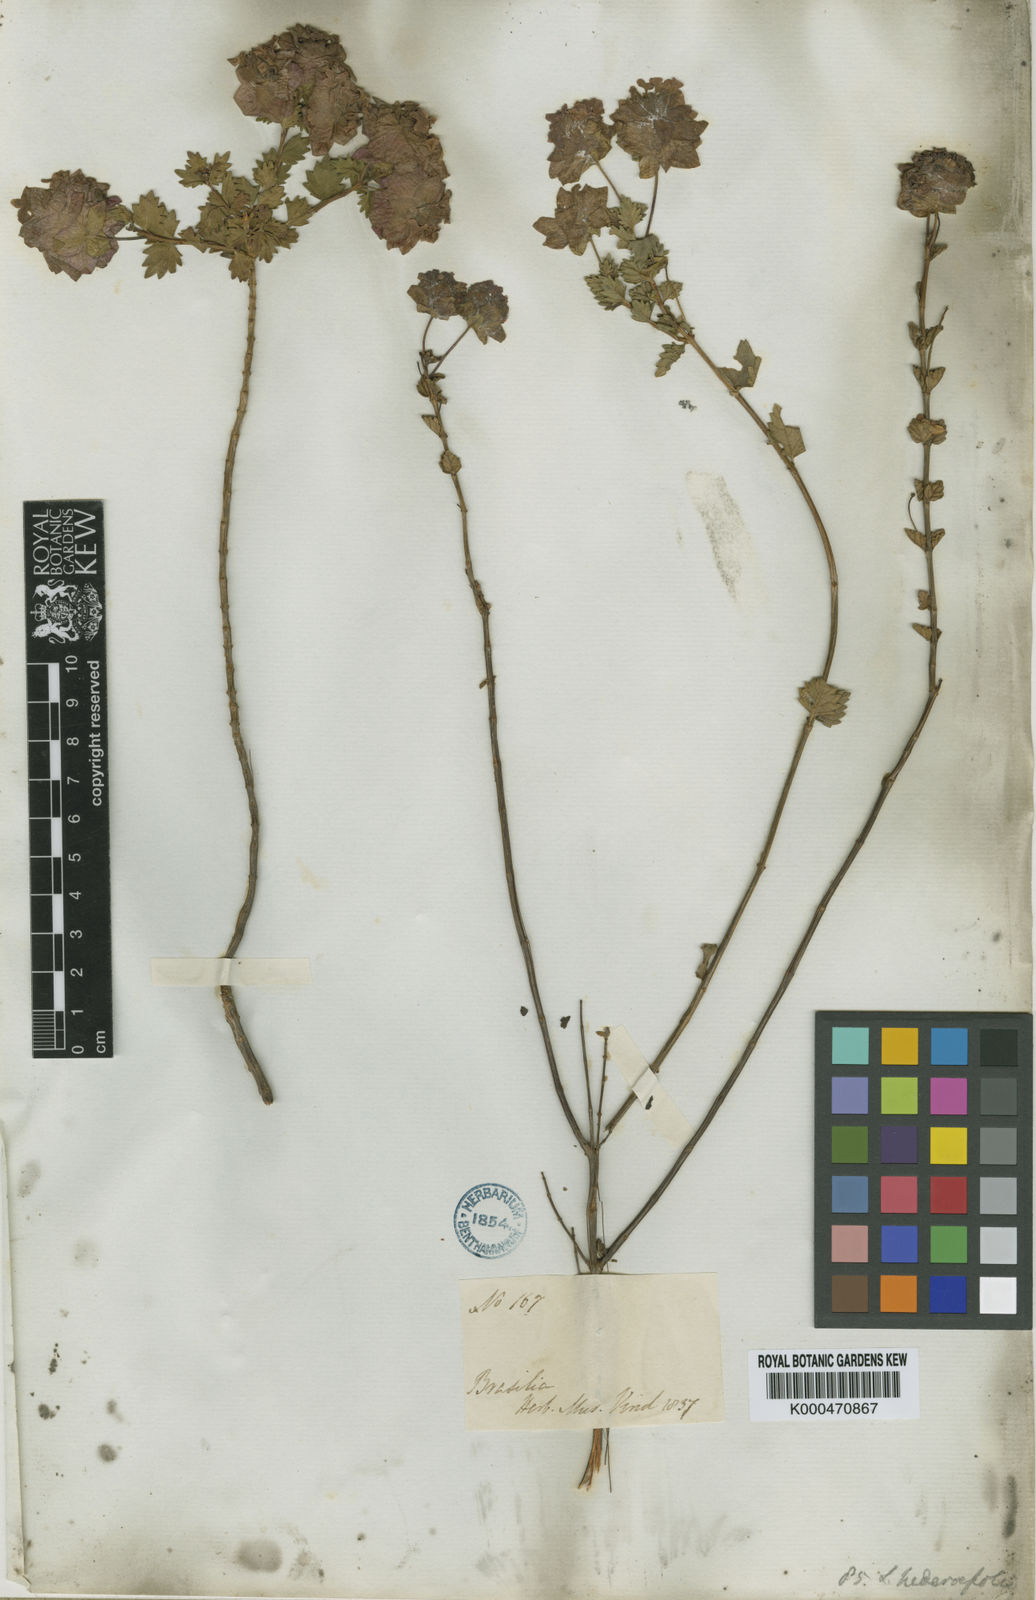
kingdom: Plantae
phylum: Tracheophyta
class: Magnoliopsida
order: Lamiales
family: Verbenaceae
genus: Lippia
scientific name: Lippia hederifolia
